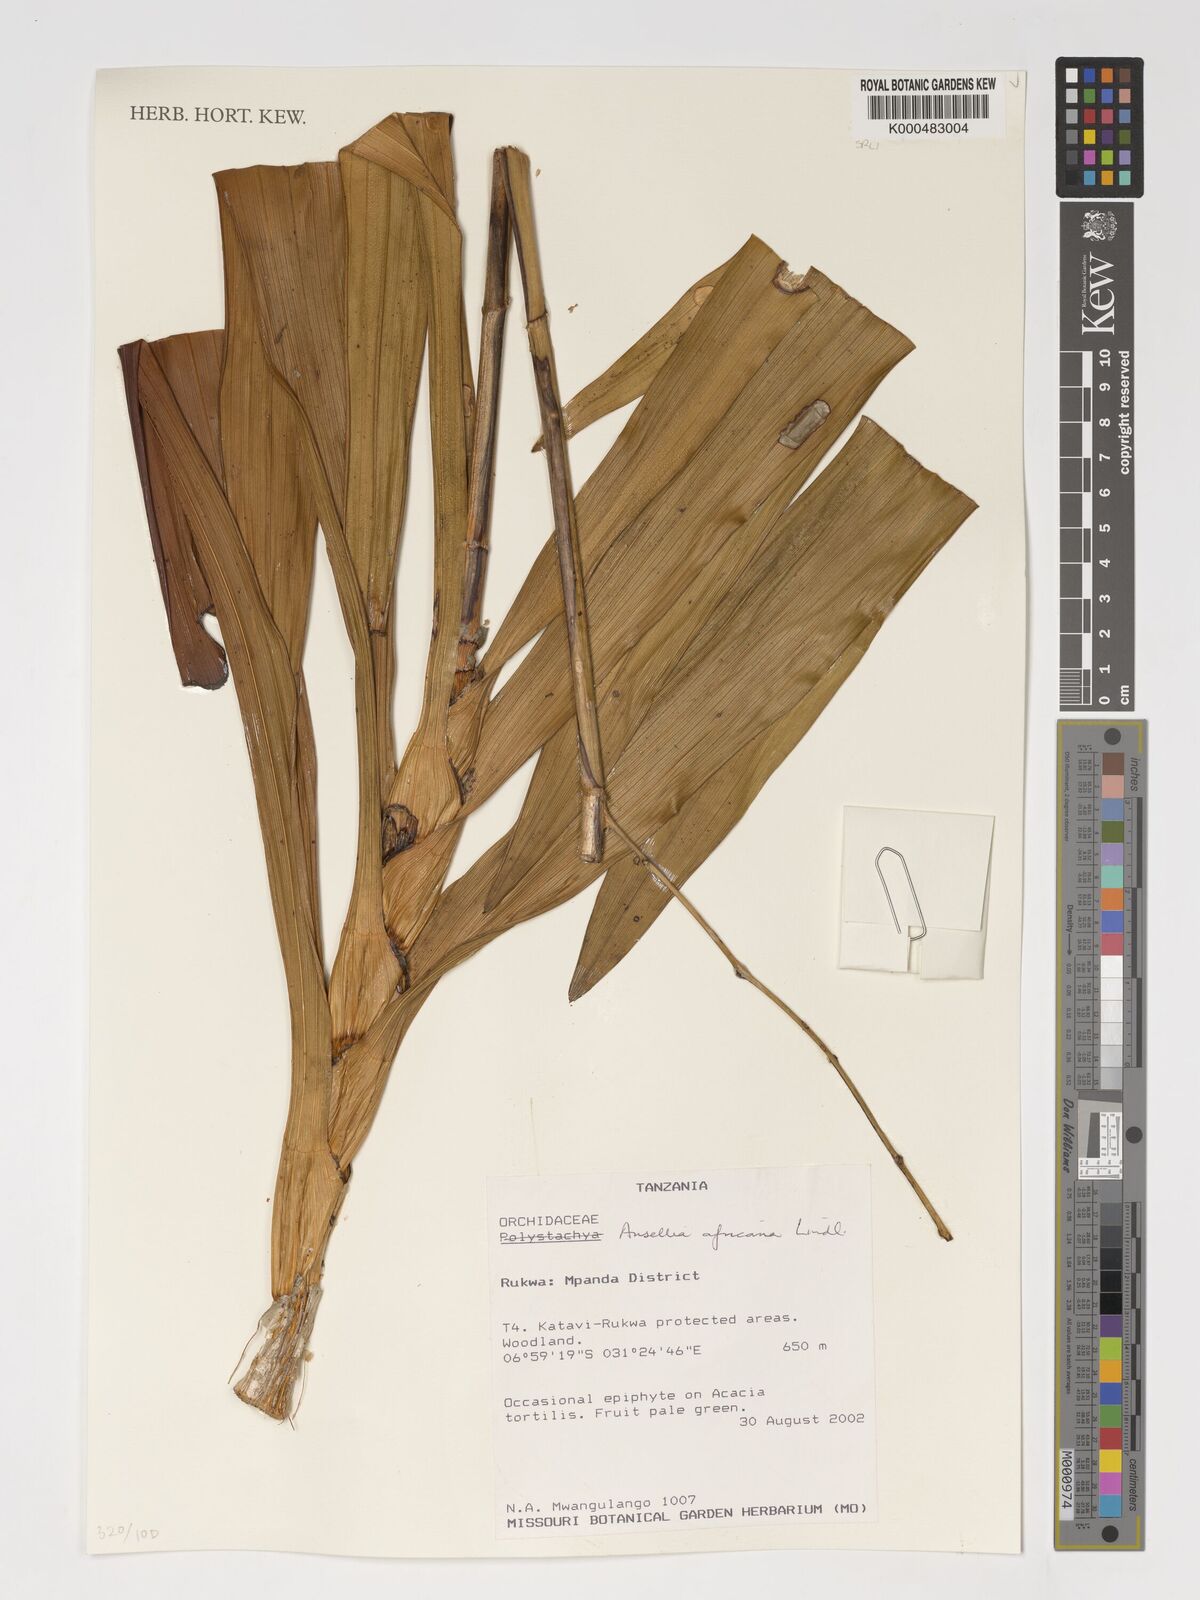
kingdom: Plantae
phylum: Tracheophyta
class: Liliopsida
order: Asparagales
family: Orchidaceae
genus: Ansellia
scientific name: Ansellia africana
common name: African ansellia
